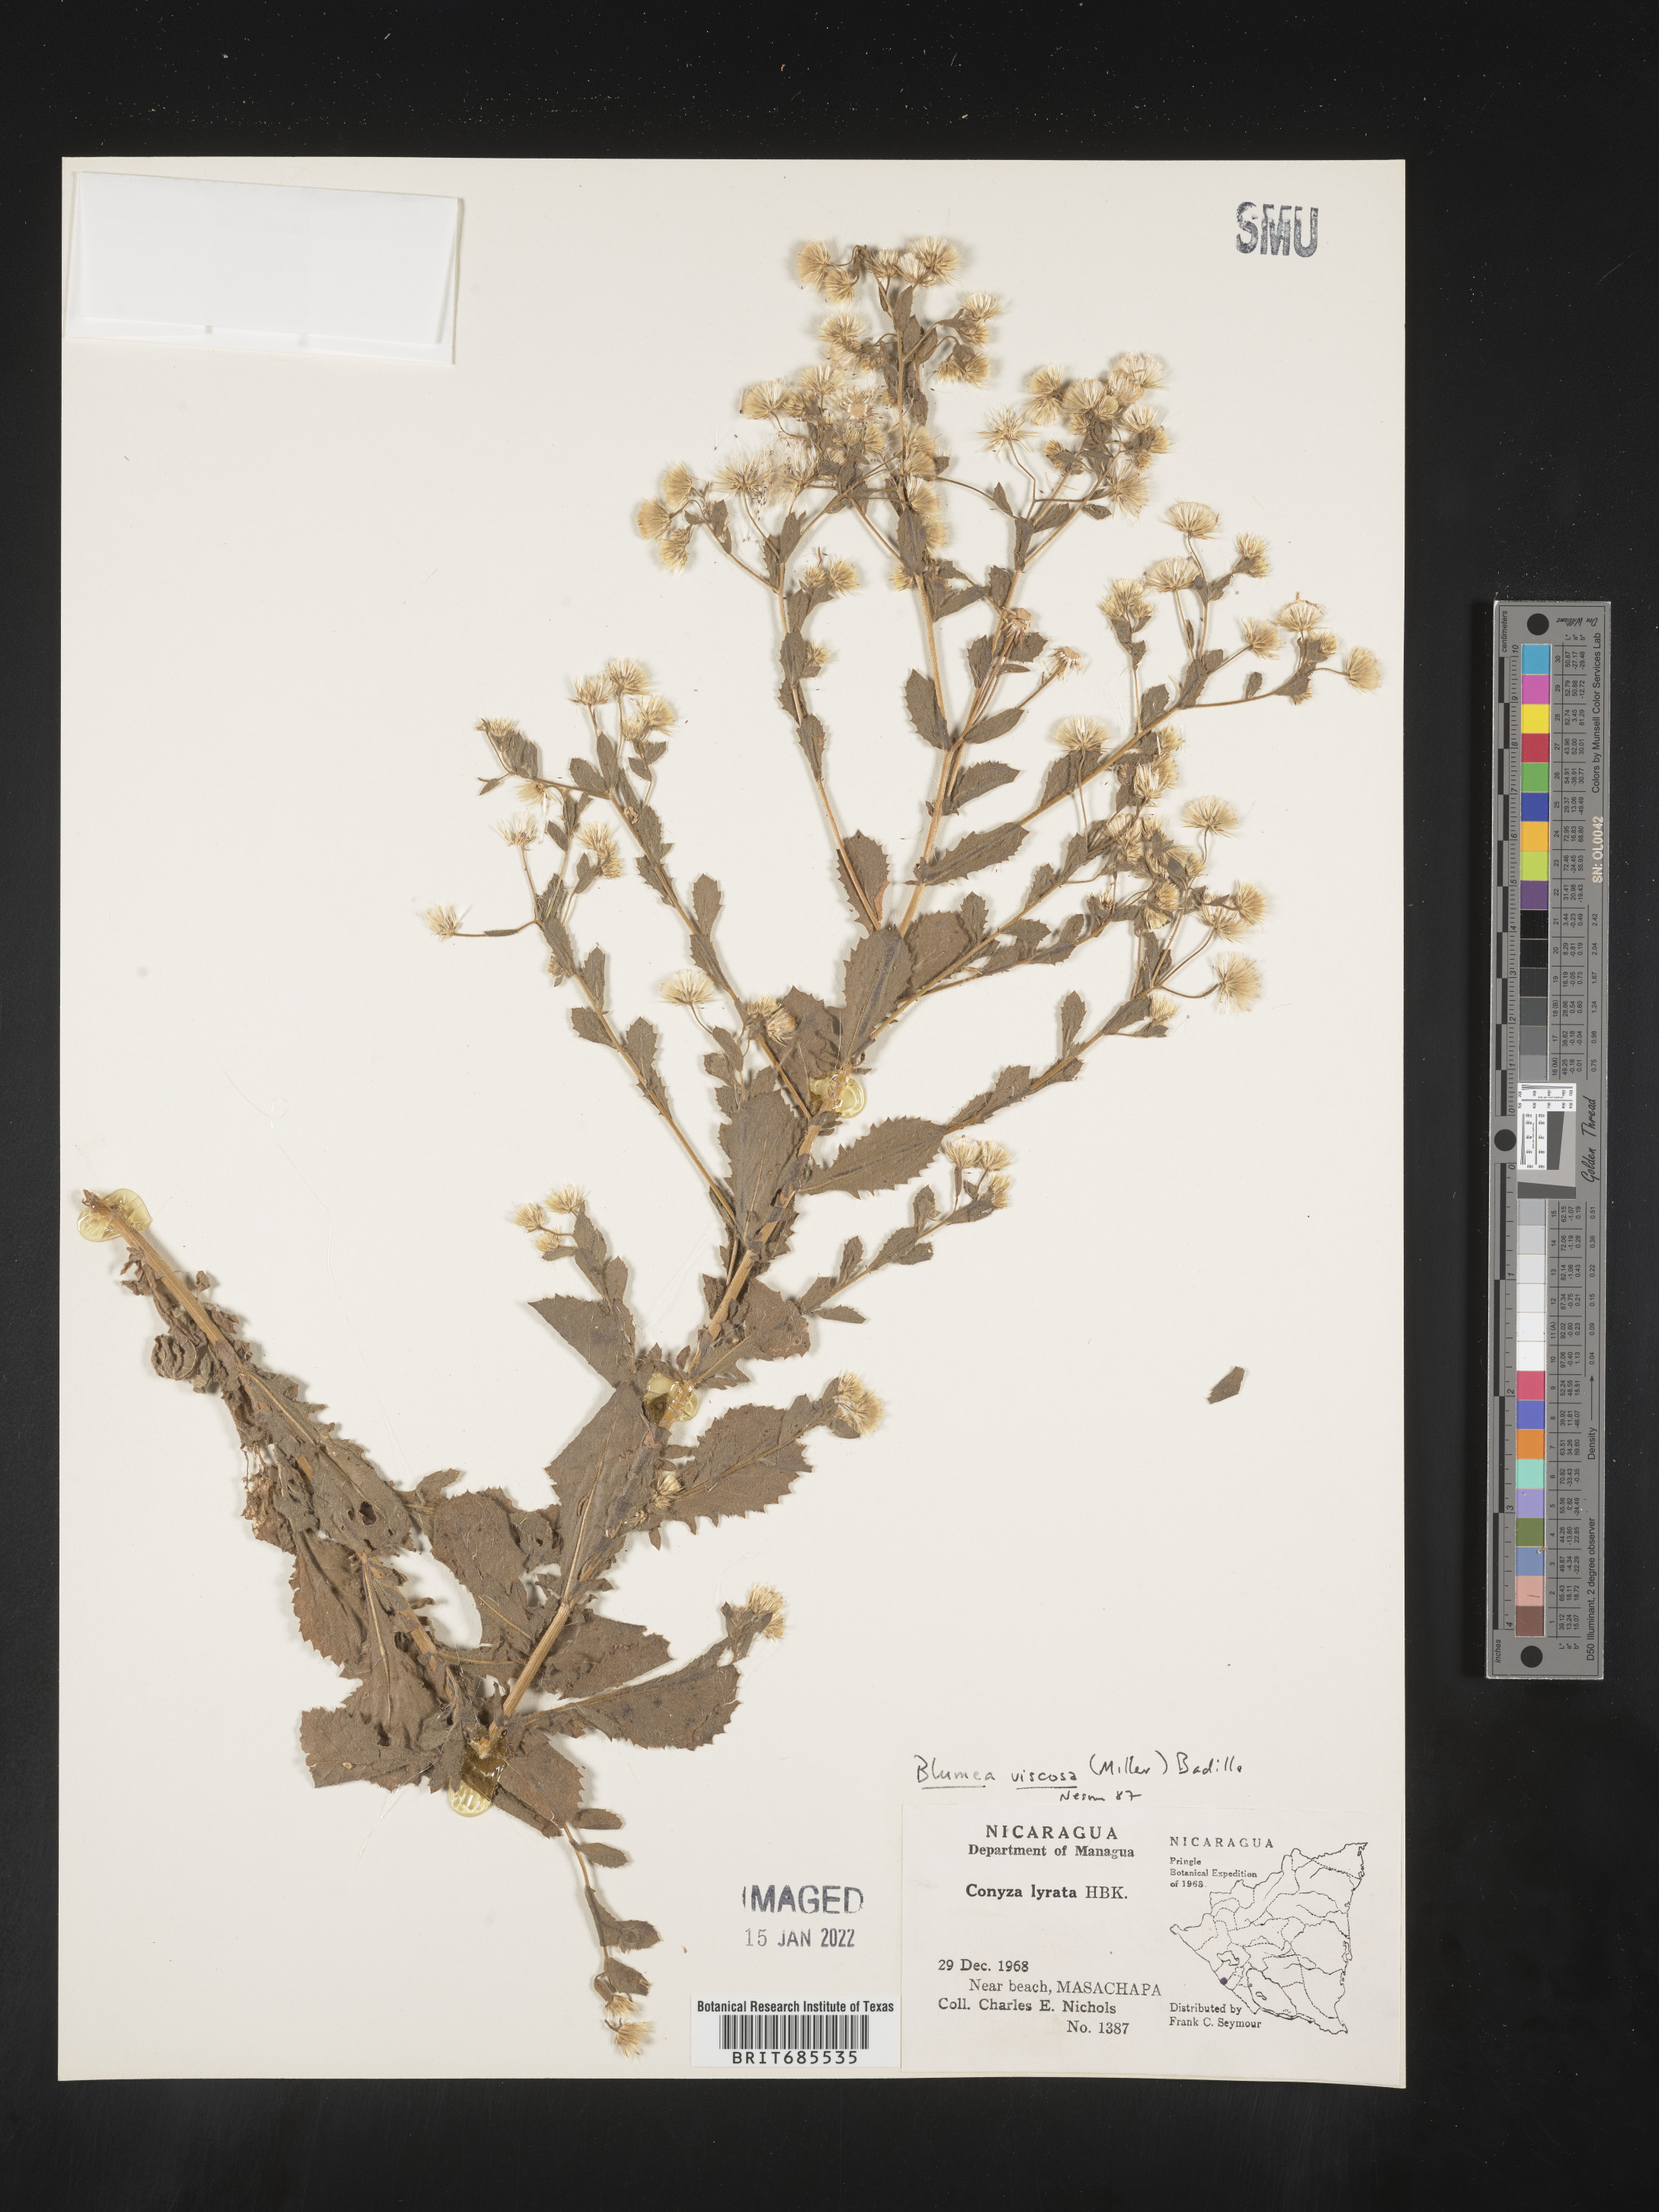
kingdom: Plantae
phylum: Tracheophyta
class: Magnoliopsida
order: Asterales
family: Asteraceae
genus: Blumea
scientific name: Blumea
